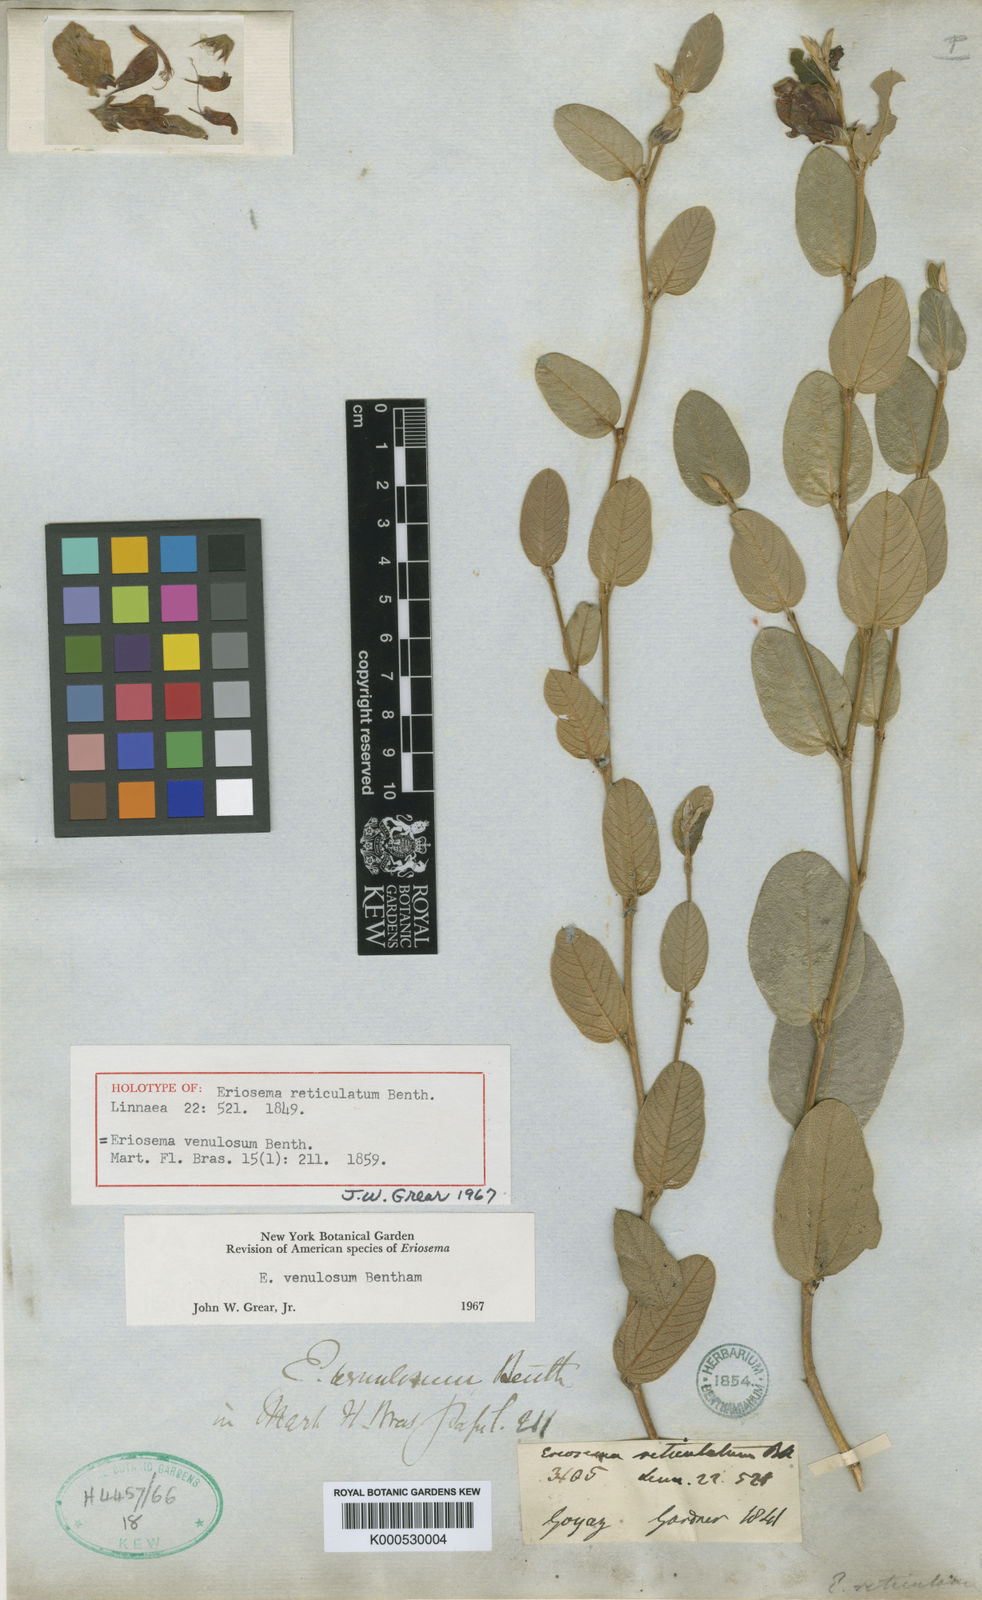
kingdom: Plantae
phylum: Tracheophyta
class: Magnoliopsida
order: Fabales
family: Fabaceae
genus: Eriosema
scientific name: Eriosema venulosum
